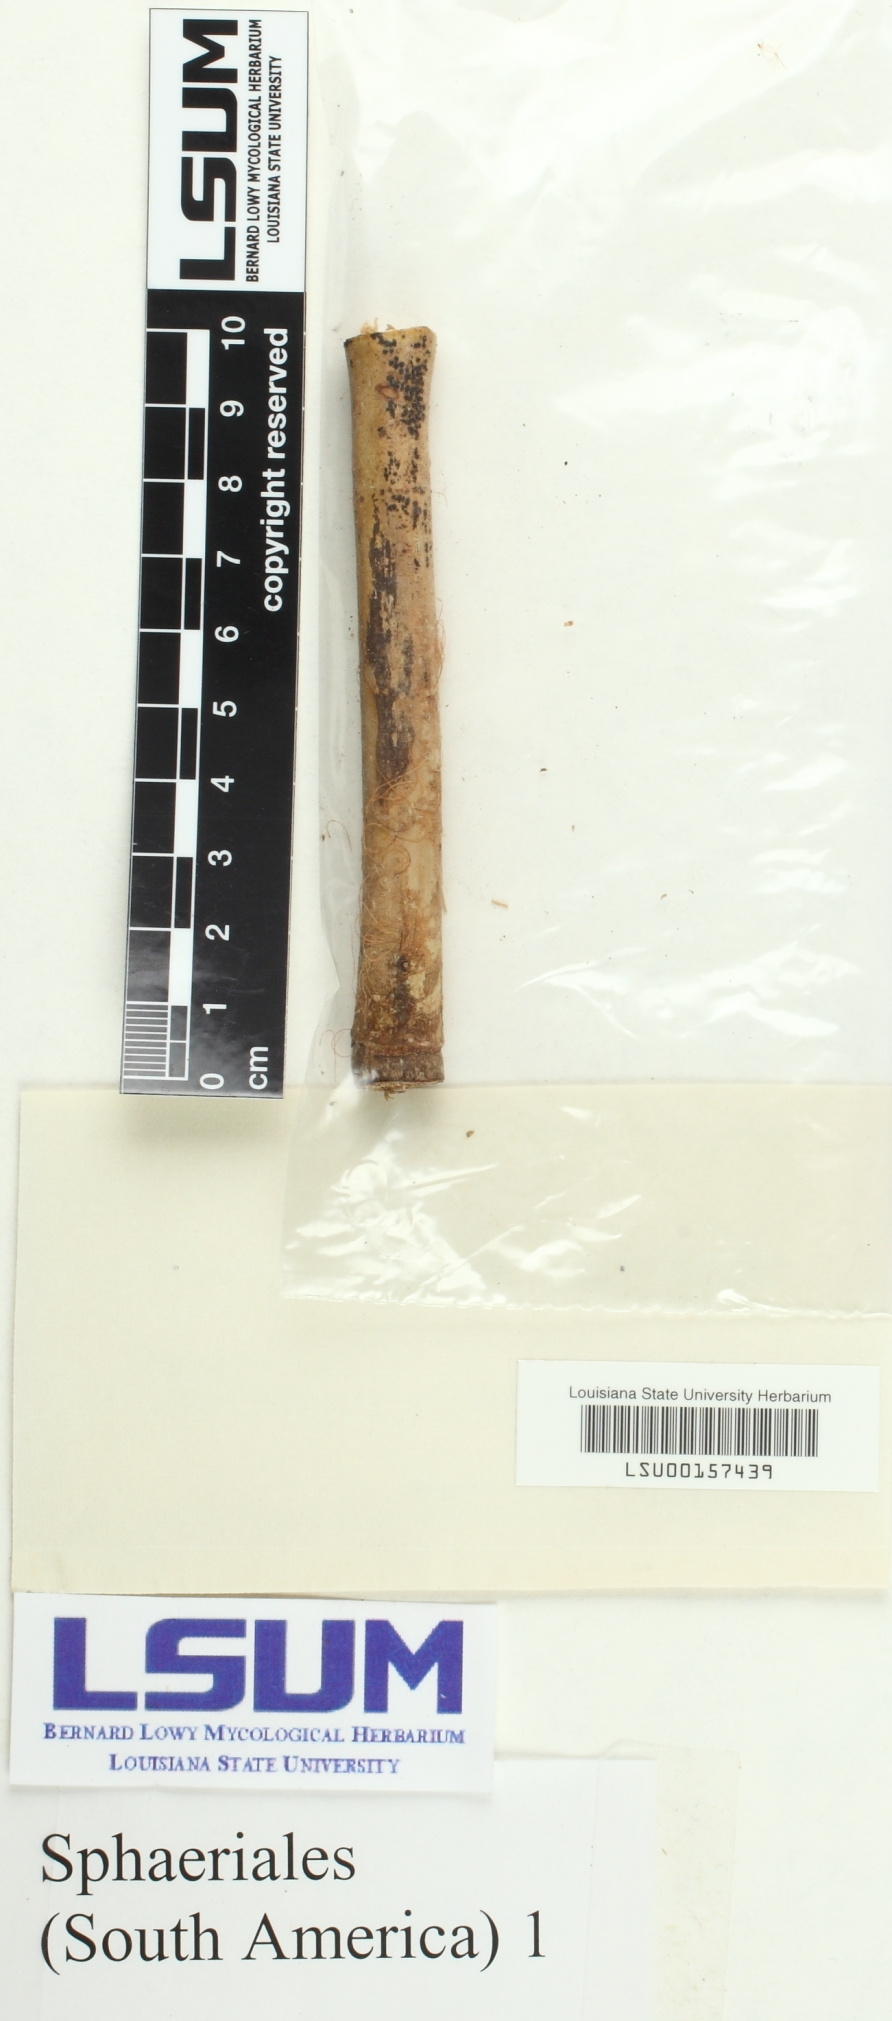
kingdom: Fungi
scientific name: Fungi
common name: Fungi
